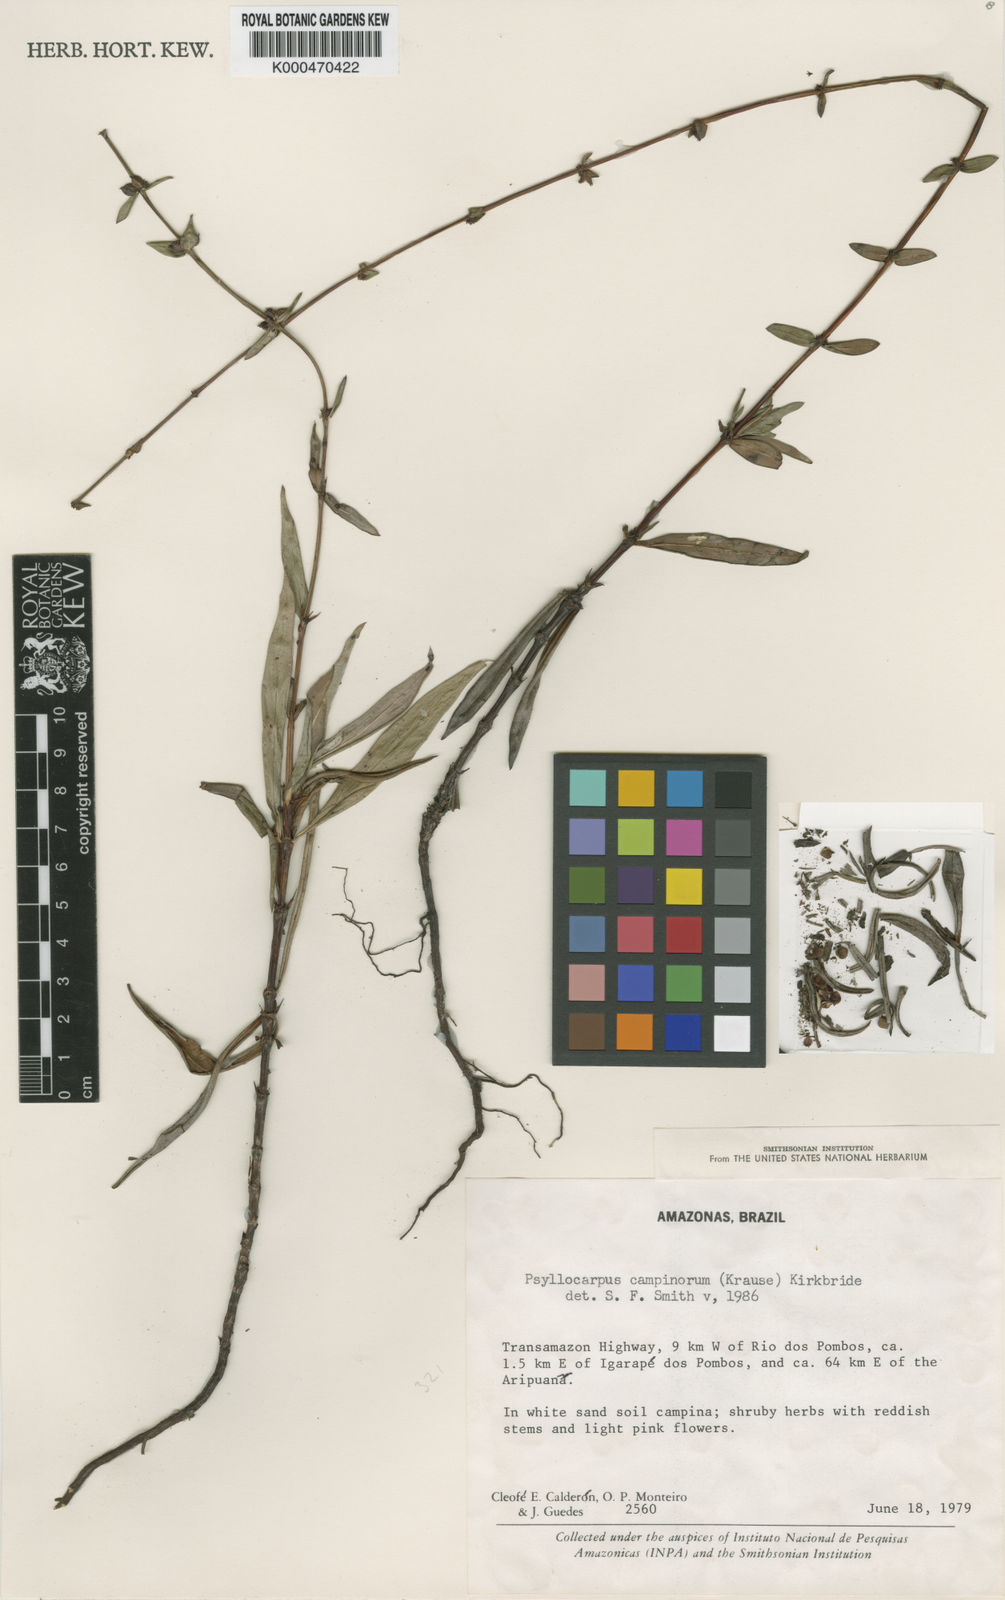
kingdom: Plantae
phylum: Tracheophyta
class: Magnoliopsida
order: Gentianales
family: Rubiaceae
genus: Psyllocarpus
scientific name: Psyllocarpus campinorum
